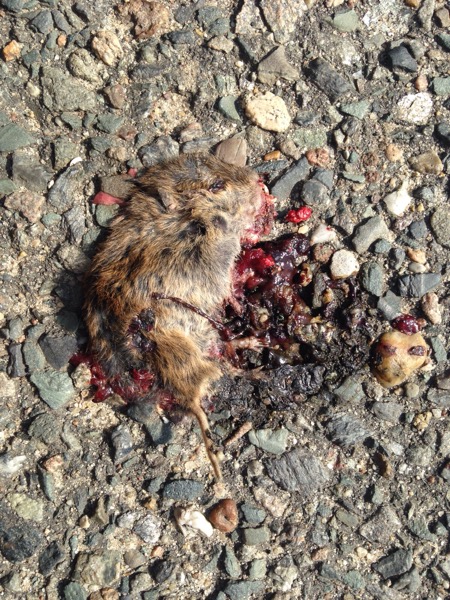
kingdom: Animalia
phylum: Chordata
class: Mammalia
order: Rodentia
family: Cricetidae
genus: Myodes
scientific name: Myodes glareolus
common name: Bank vole
